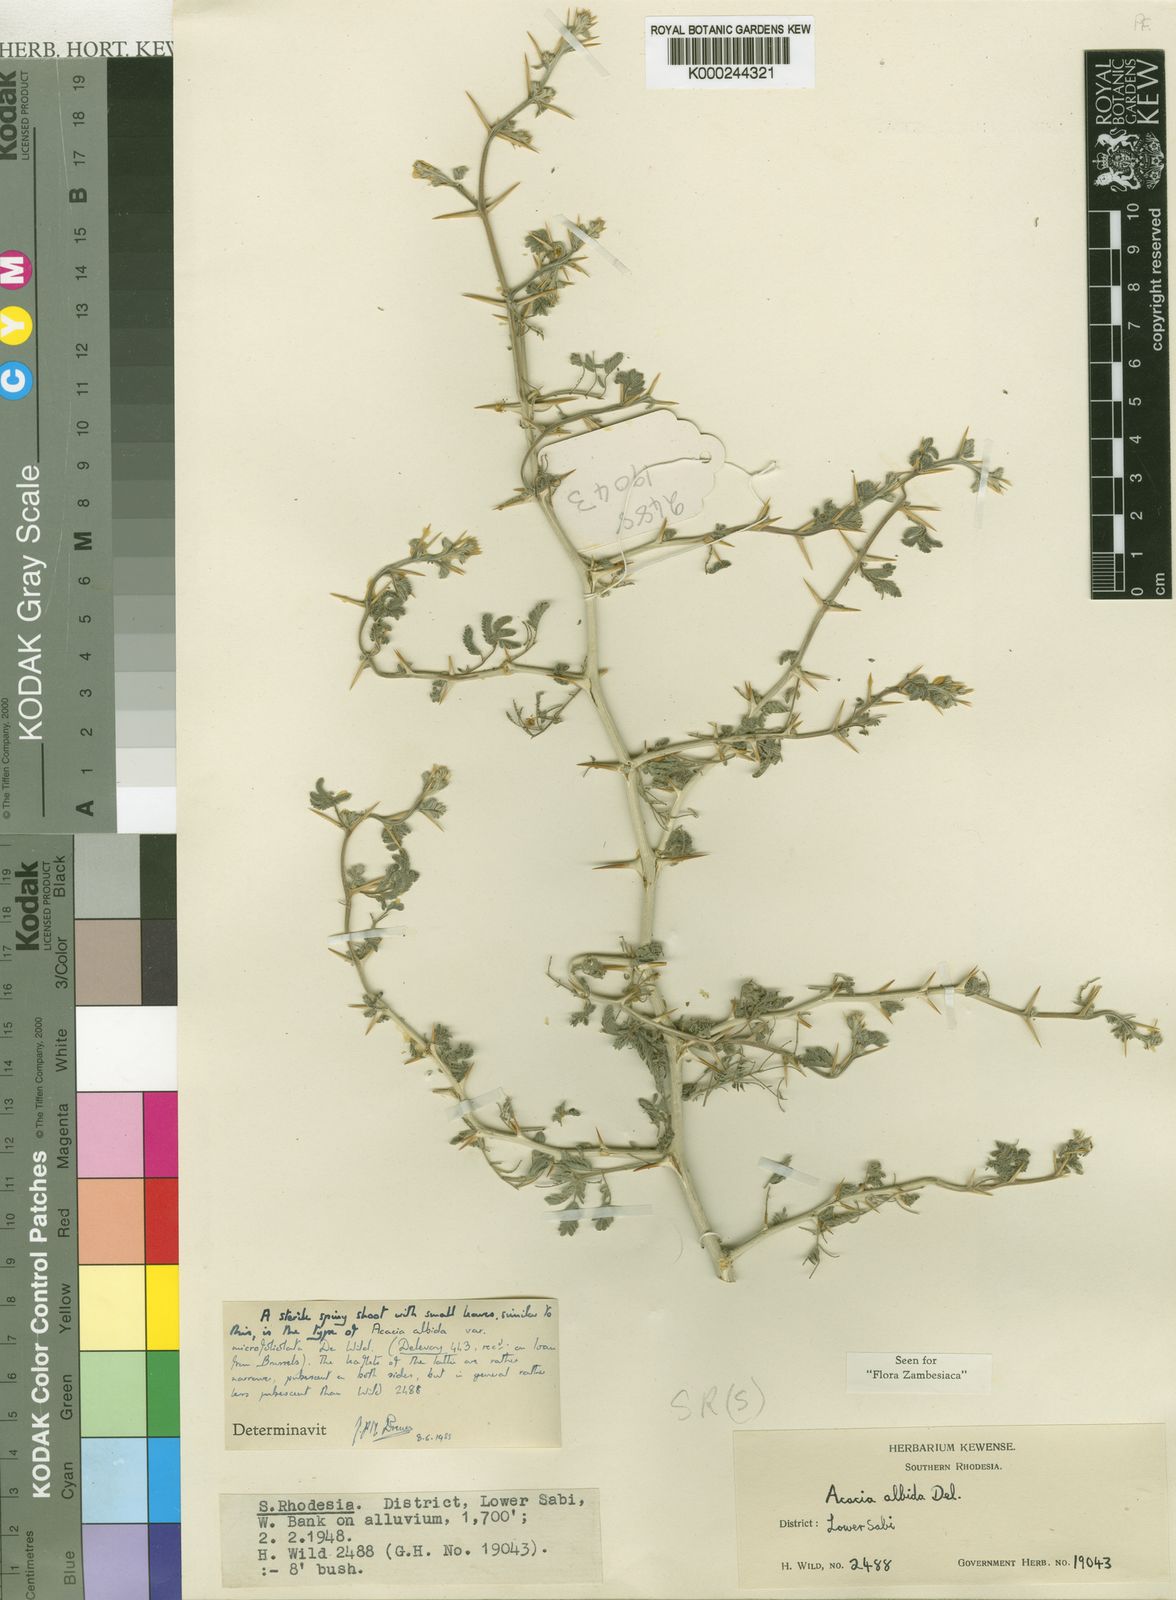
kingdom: Plantae
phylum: Tracheophyta
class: Magnoliopsida
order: Fabales
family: Fabaceae
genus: Faidherbia
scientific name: Faidherbia albida
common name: Anatree
